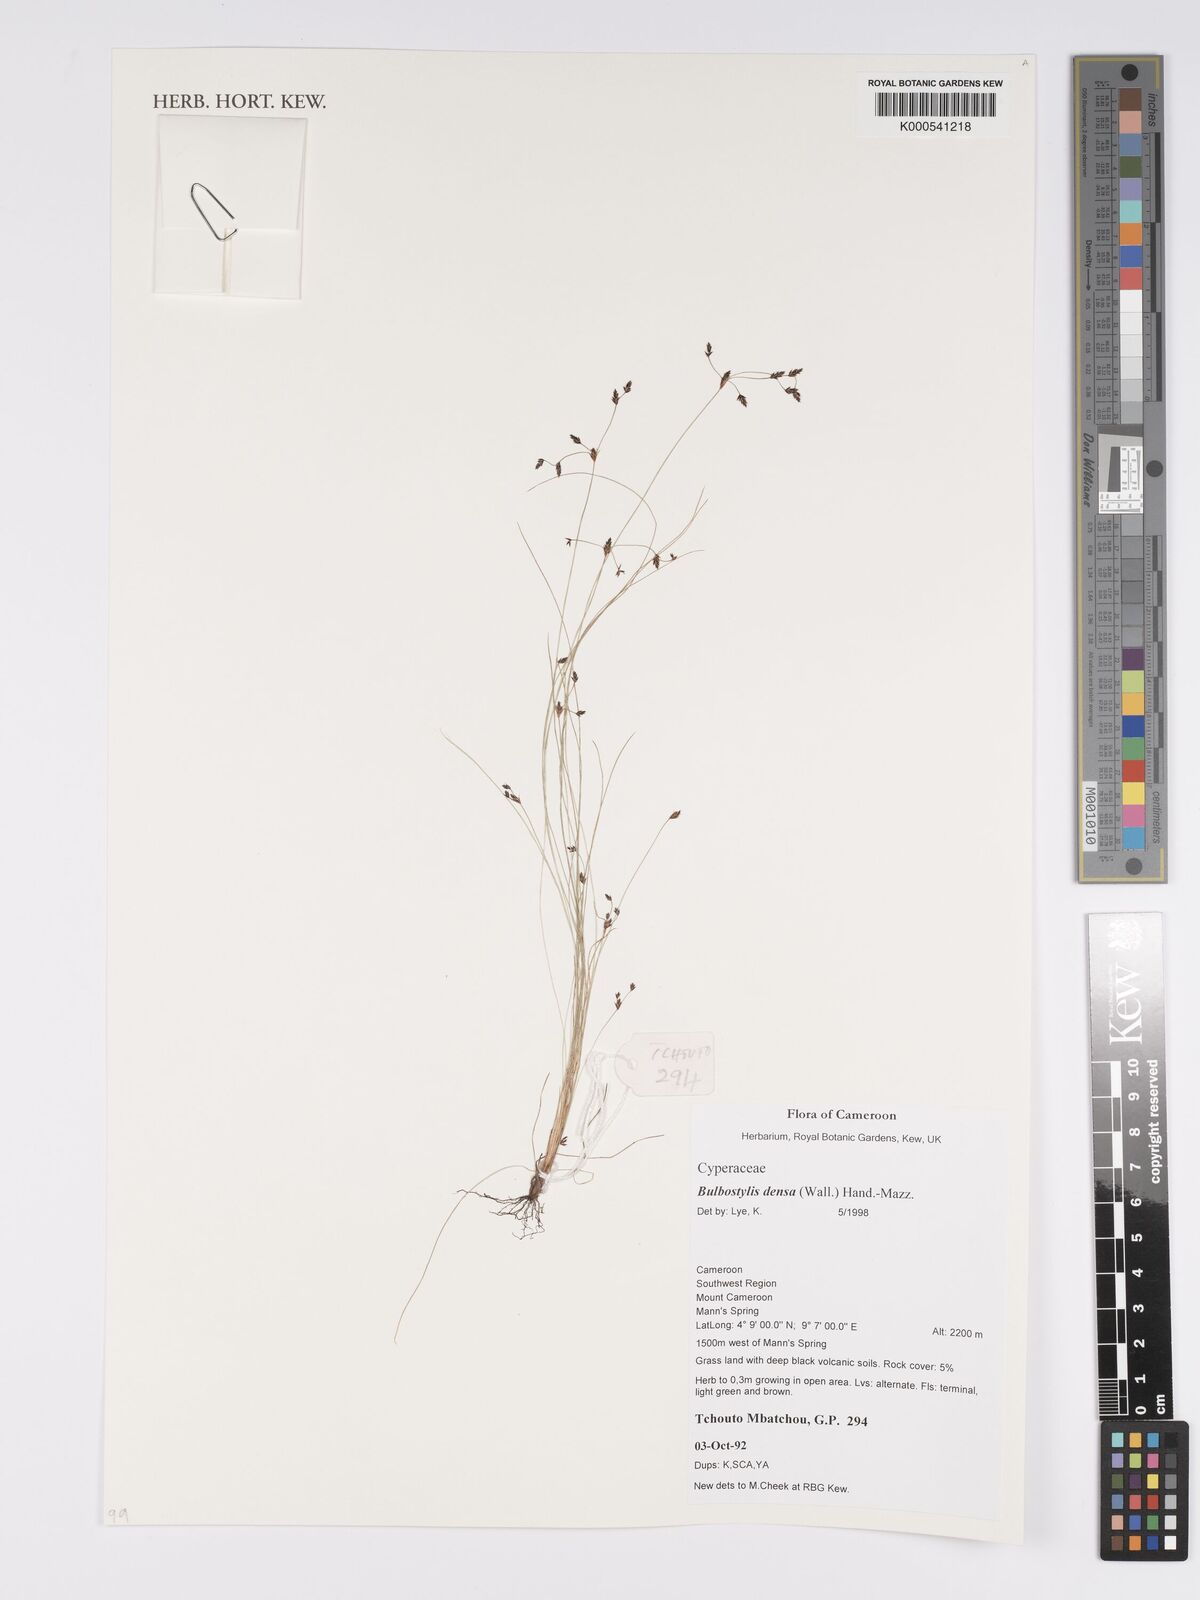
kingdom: Plantae
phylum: Tracheophyta
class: Liliopsida
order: Poales
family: Cyperaceae
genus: Bulbostylis
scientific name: Bulbostylis densa
